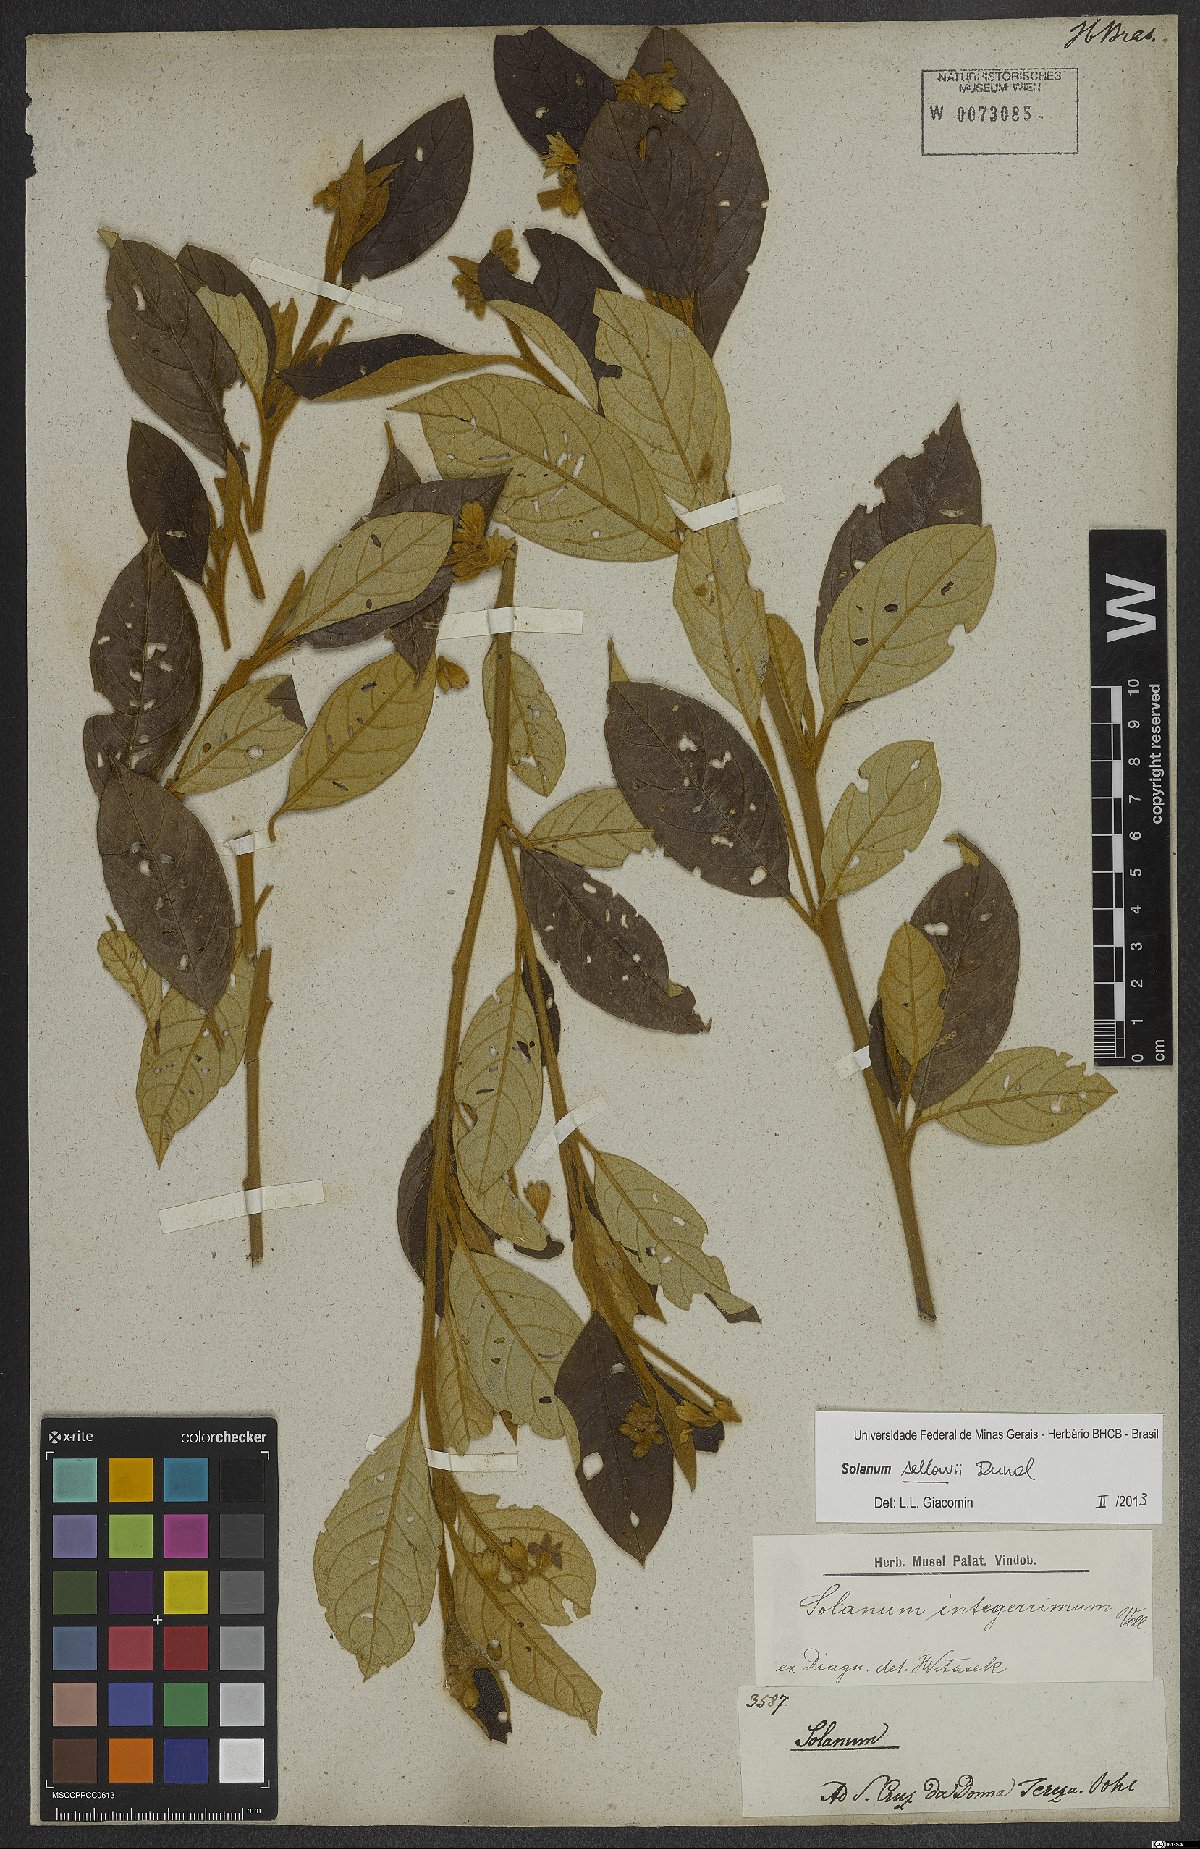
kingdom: Plantae
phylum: Tracheophyta
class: Magnoliopsida
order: Solanales
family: Solanaceae
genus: Solanum
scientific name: Solanum sellowii
